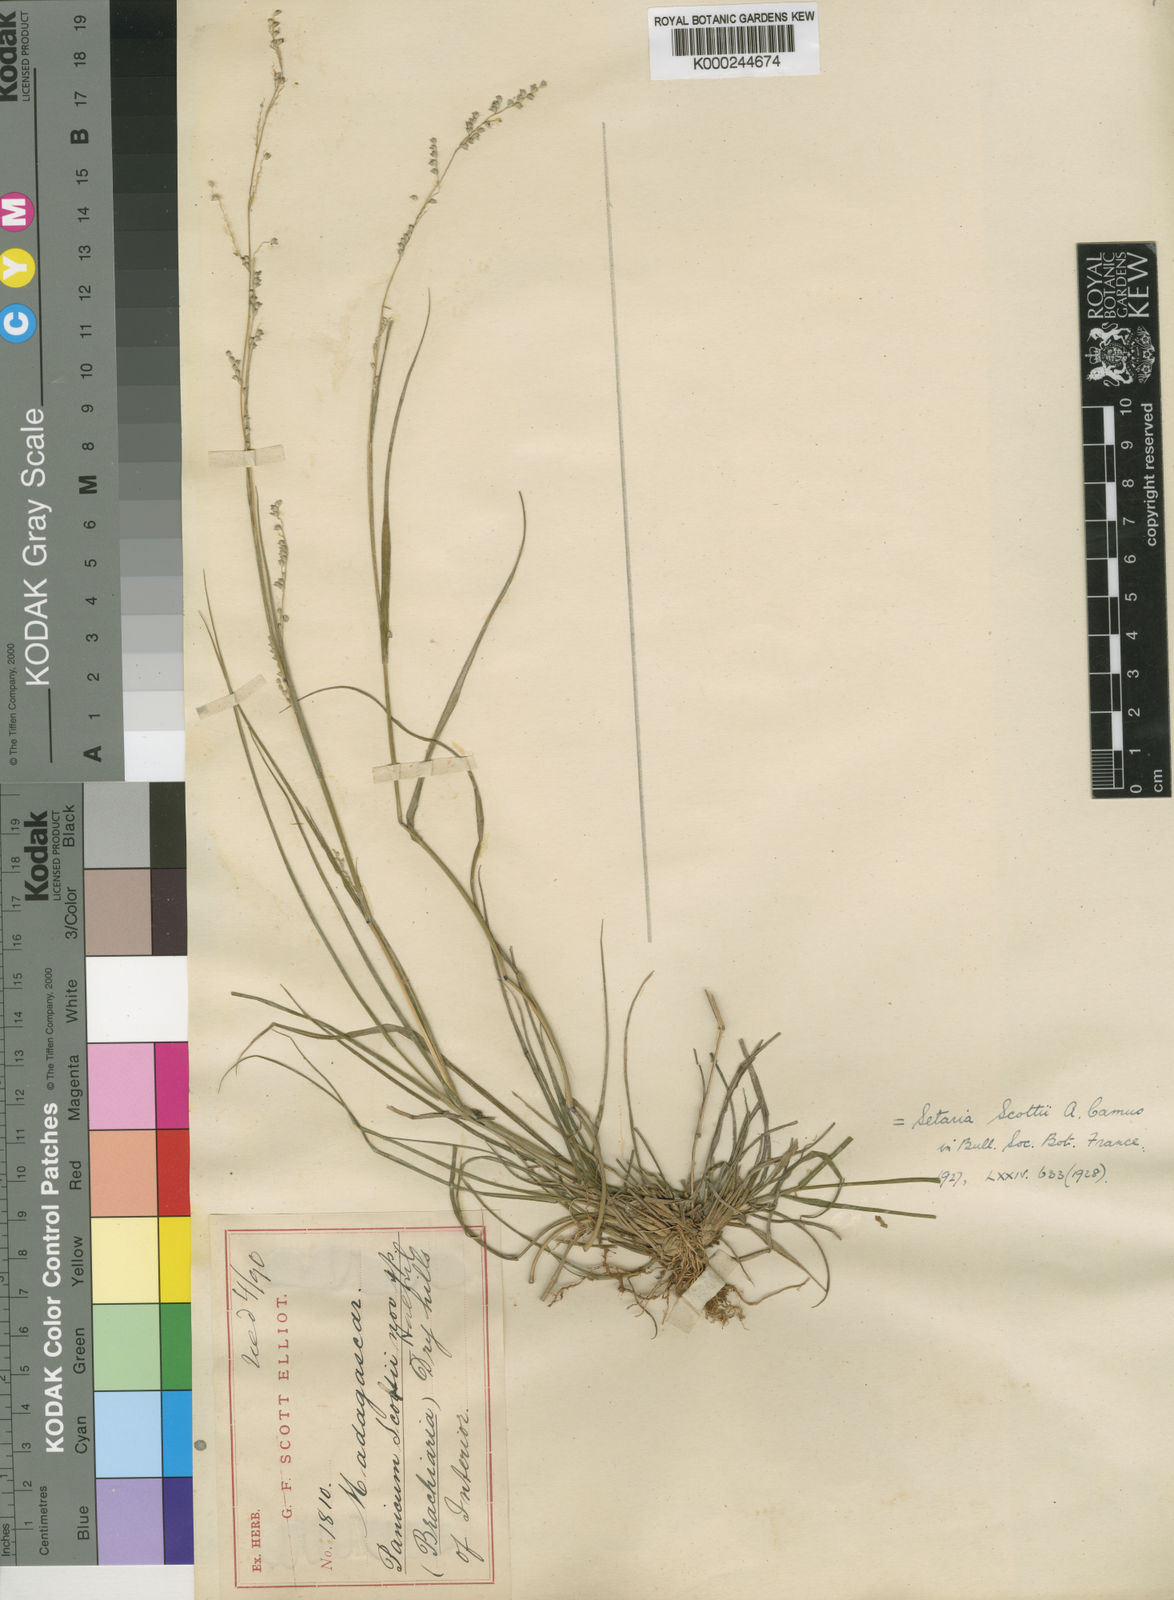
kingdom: Plantae
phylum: Tracheophyta
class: Liliopsida
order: Poales
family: Poaceae
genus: Setaria
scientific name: Setaria scottii
